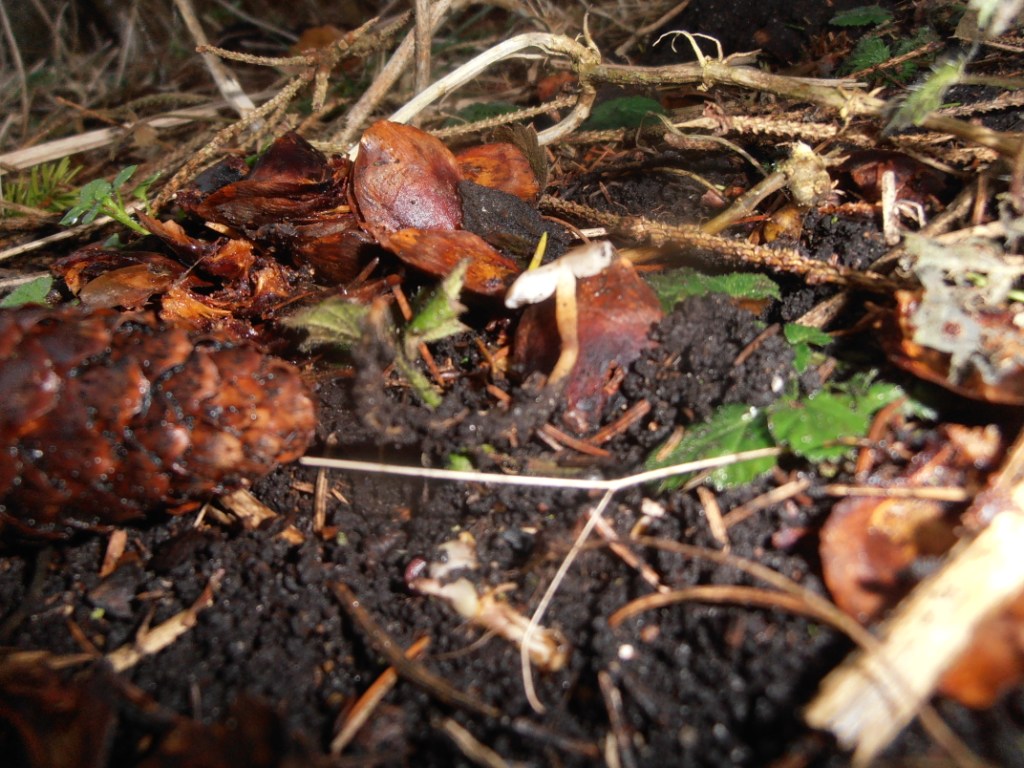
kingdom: Fungi
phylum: Basidiomycota
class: Agaricomycetes
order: Agaricales
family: Physalacriaceae
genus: Strobilurus
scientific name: Strobilurus esculentus
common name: gran-koglehat
